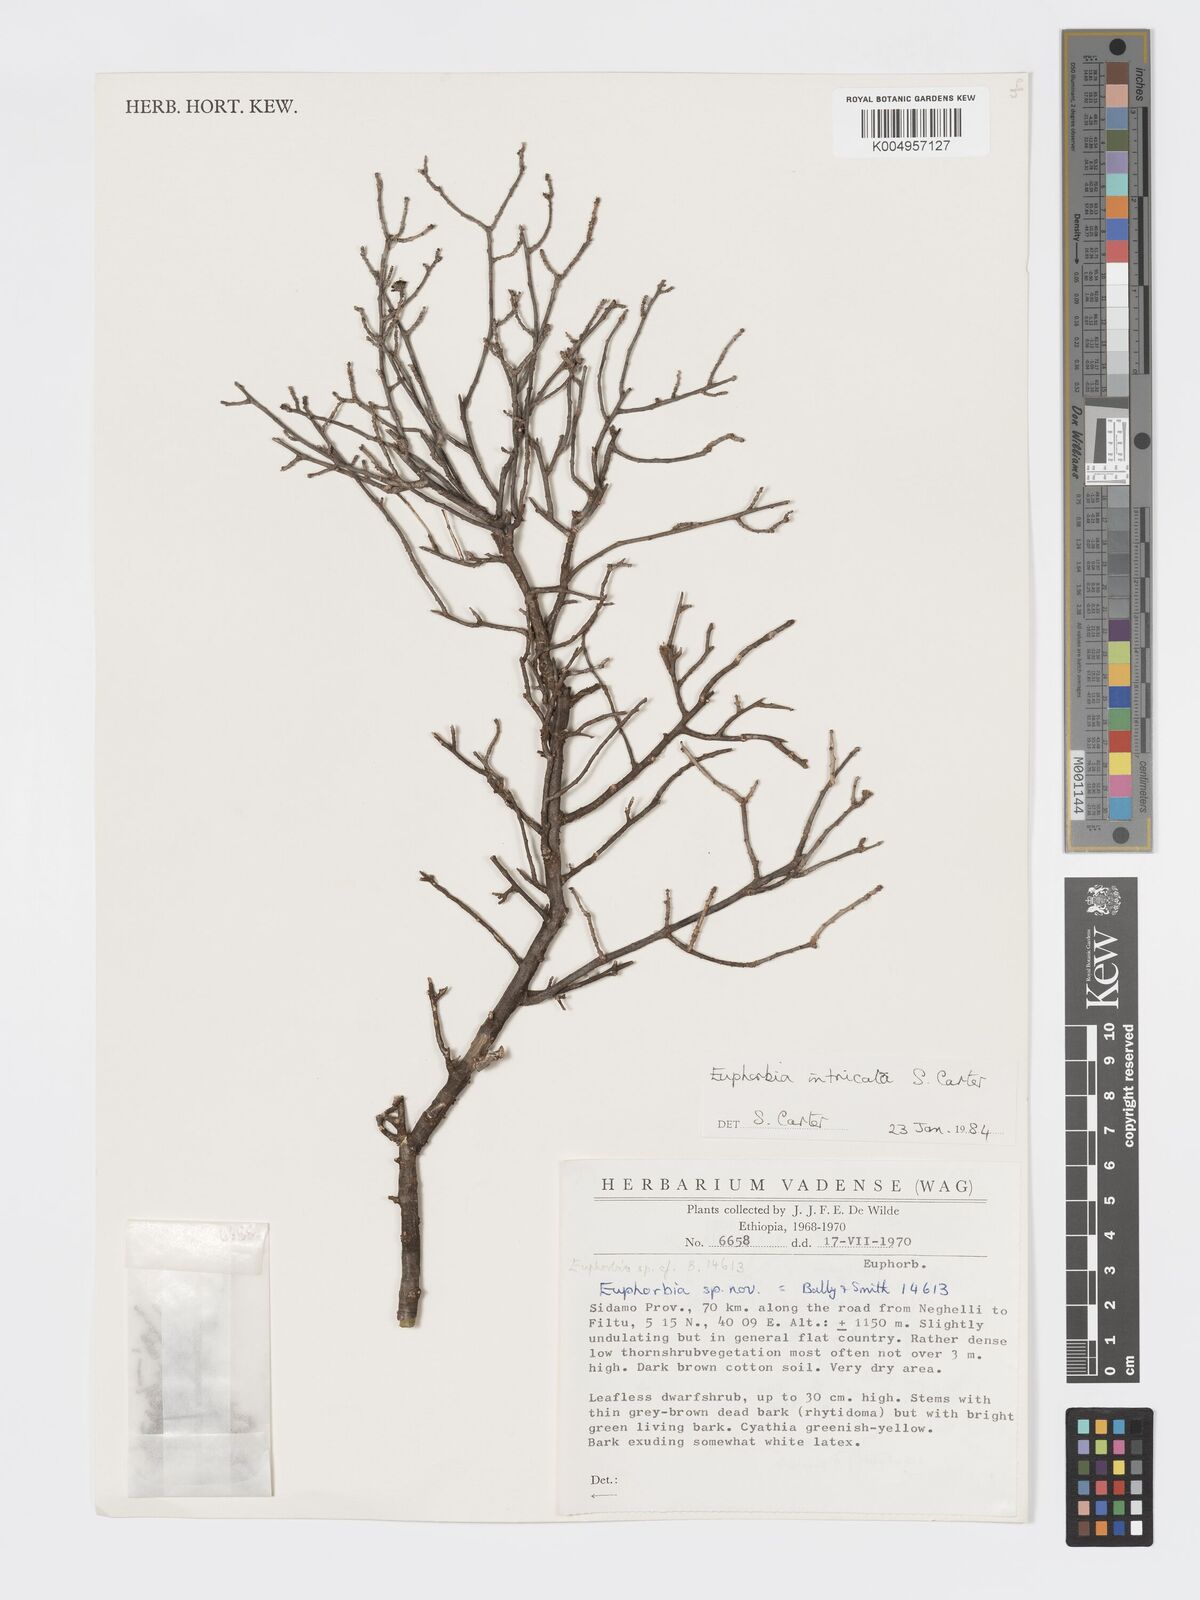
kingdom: Plantae
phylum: Tracheophyta
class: Magnoliopsida
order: Malpighiales
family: Euphorbiaceae
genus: Euphorbia
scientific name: Euphorbia intricata
